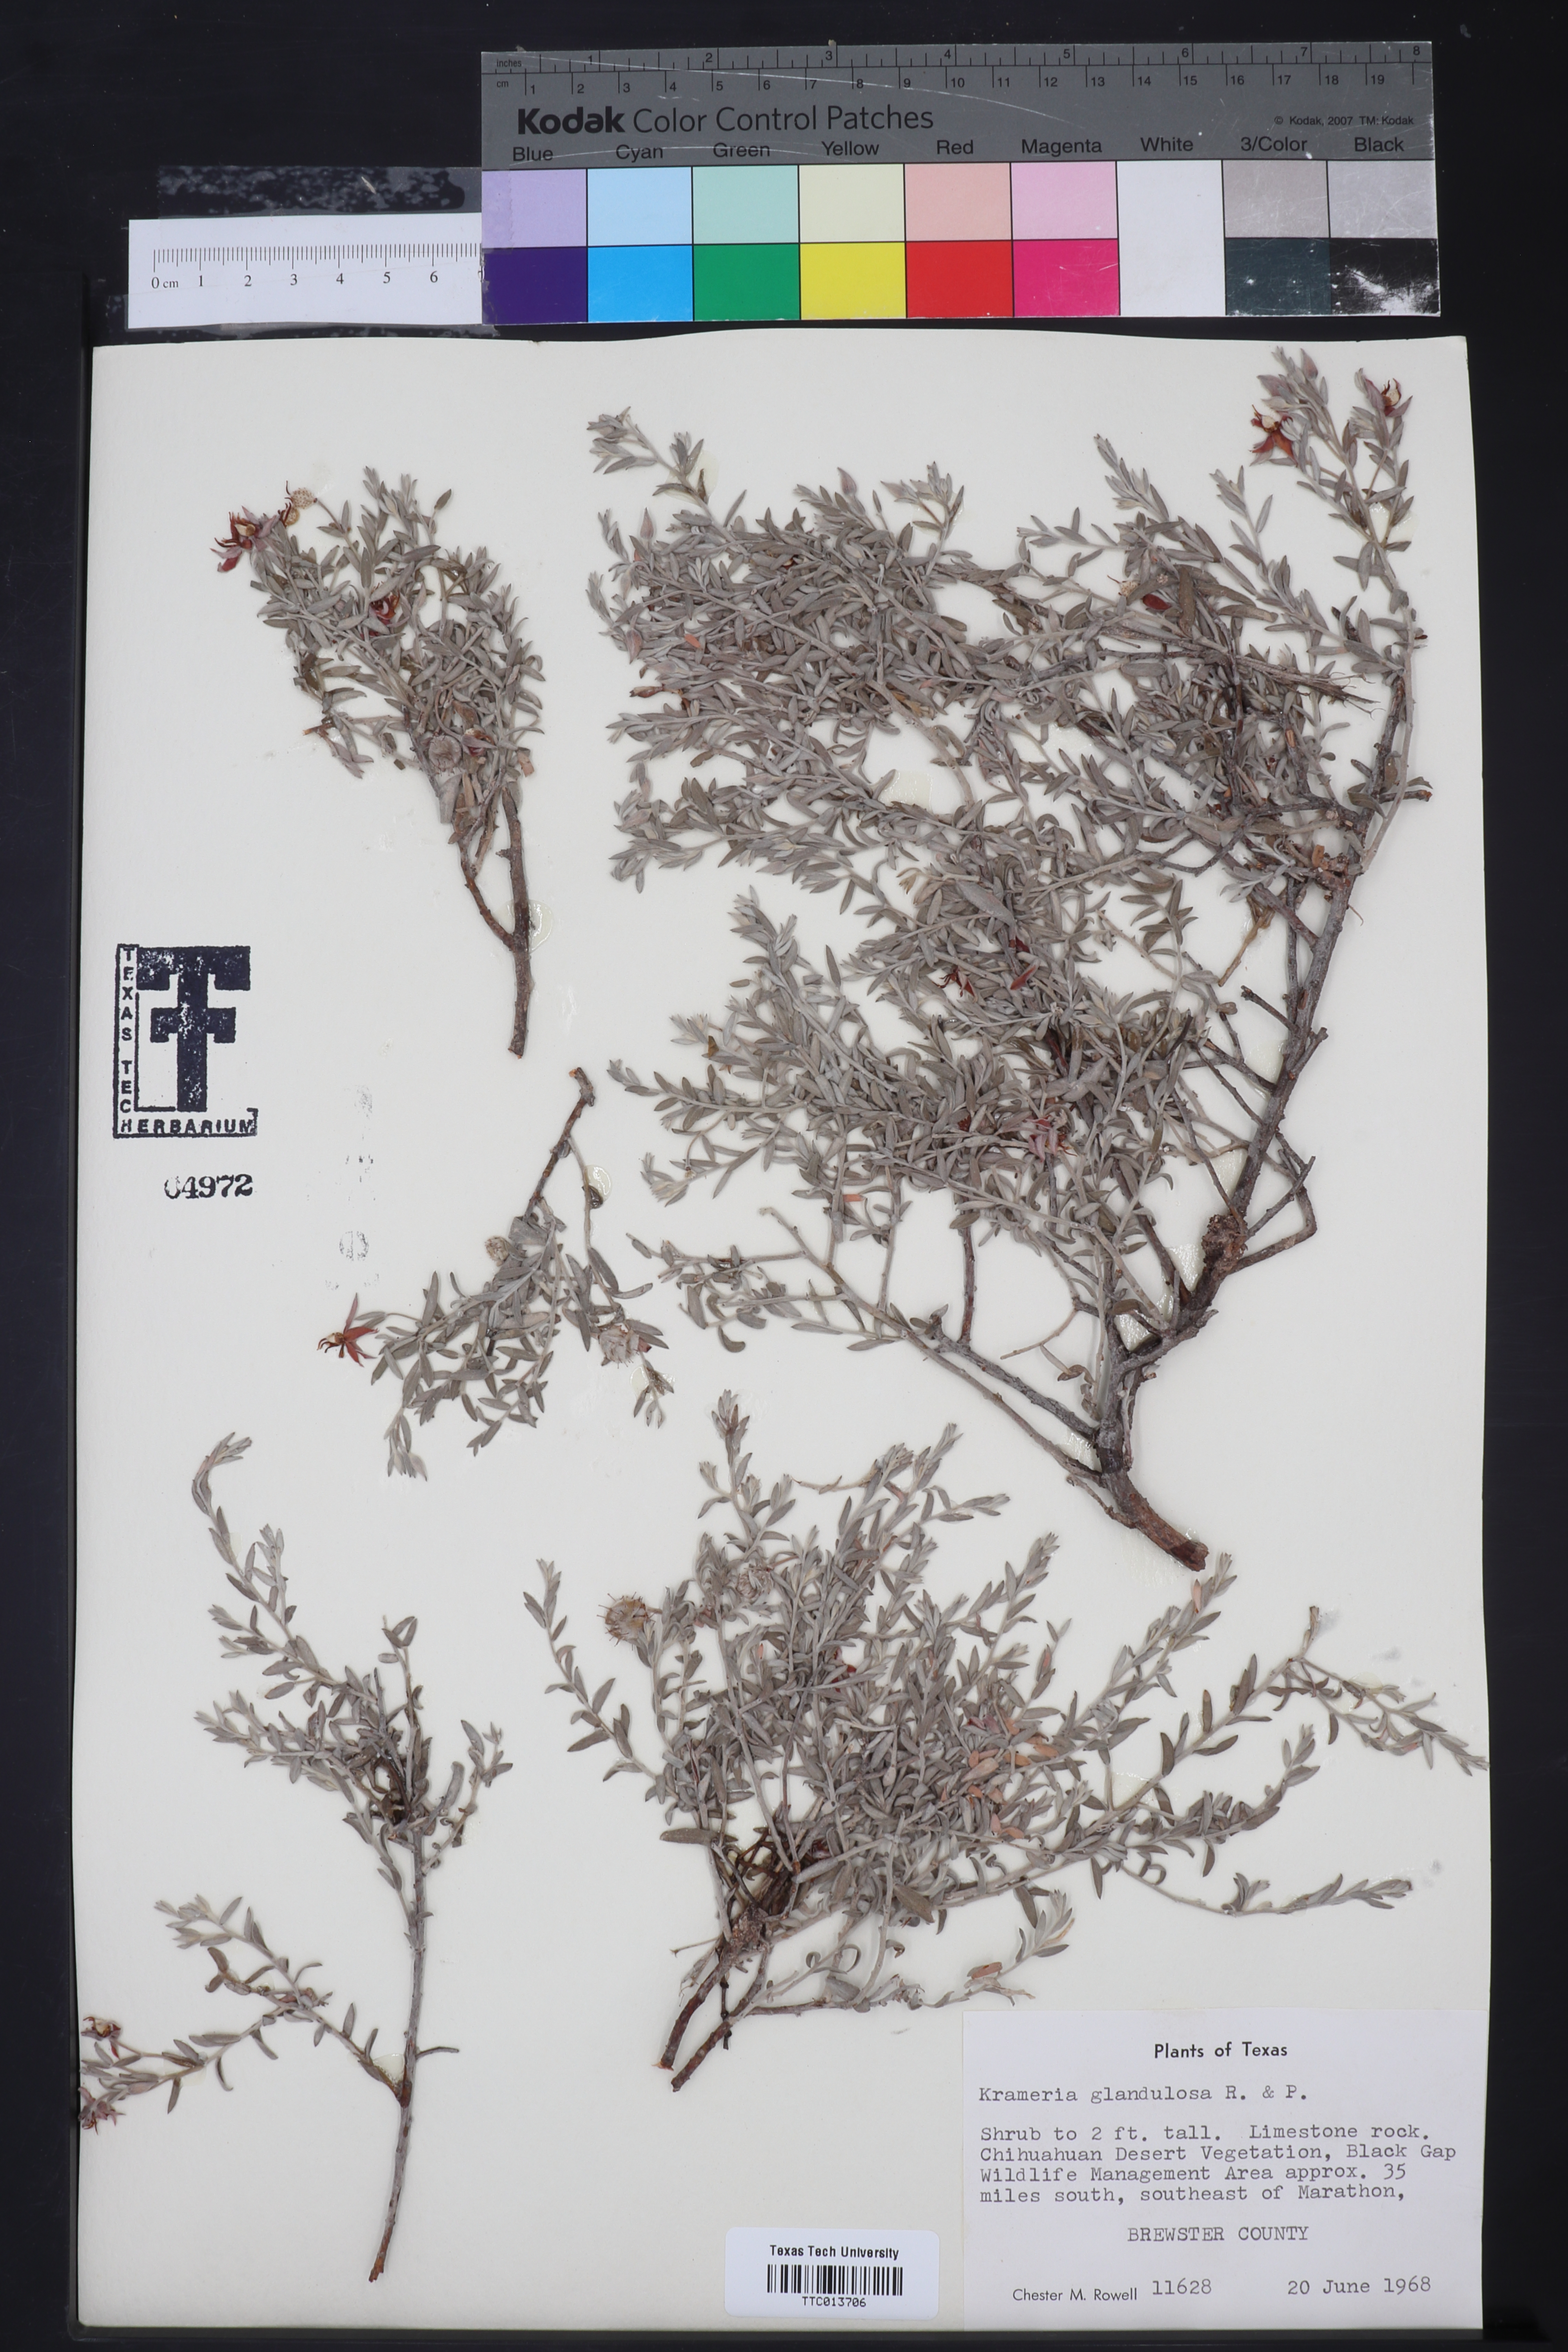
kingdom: Plantae
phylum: Tracheophyta
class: Magnoliopsida
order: Zygophyllales
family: Krameriaceae
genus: Krameria
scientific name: Krameria erecta
